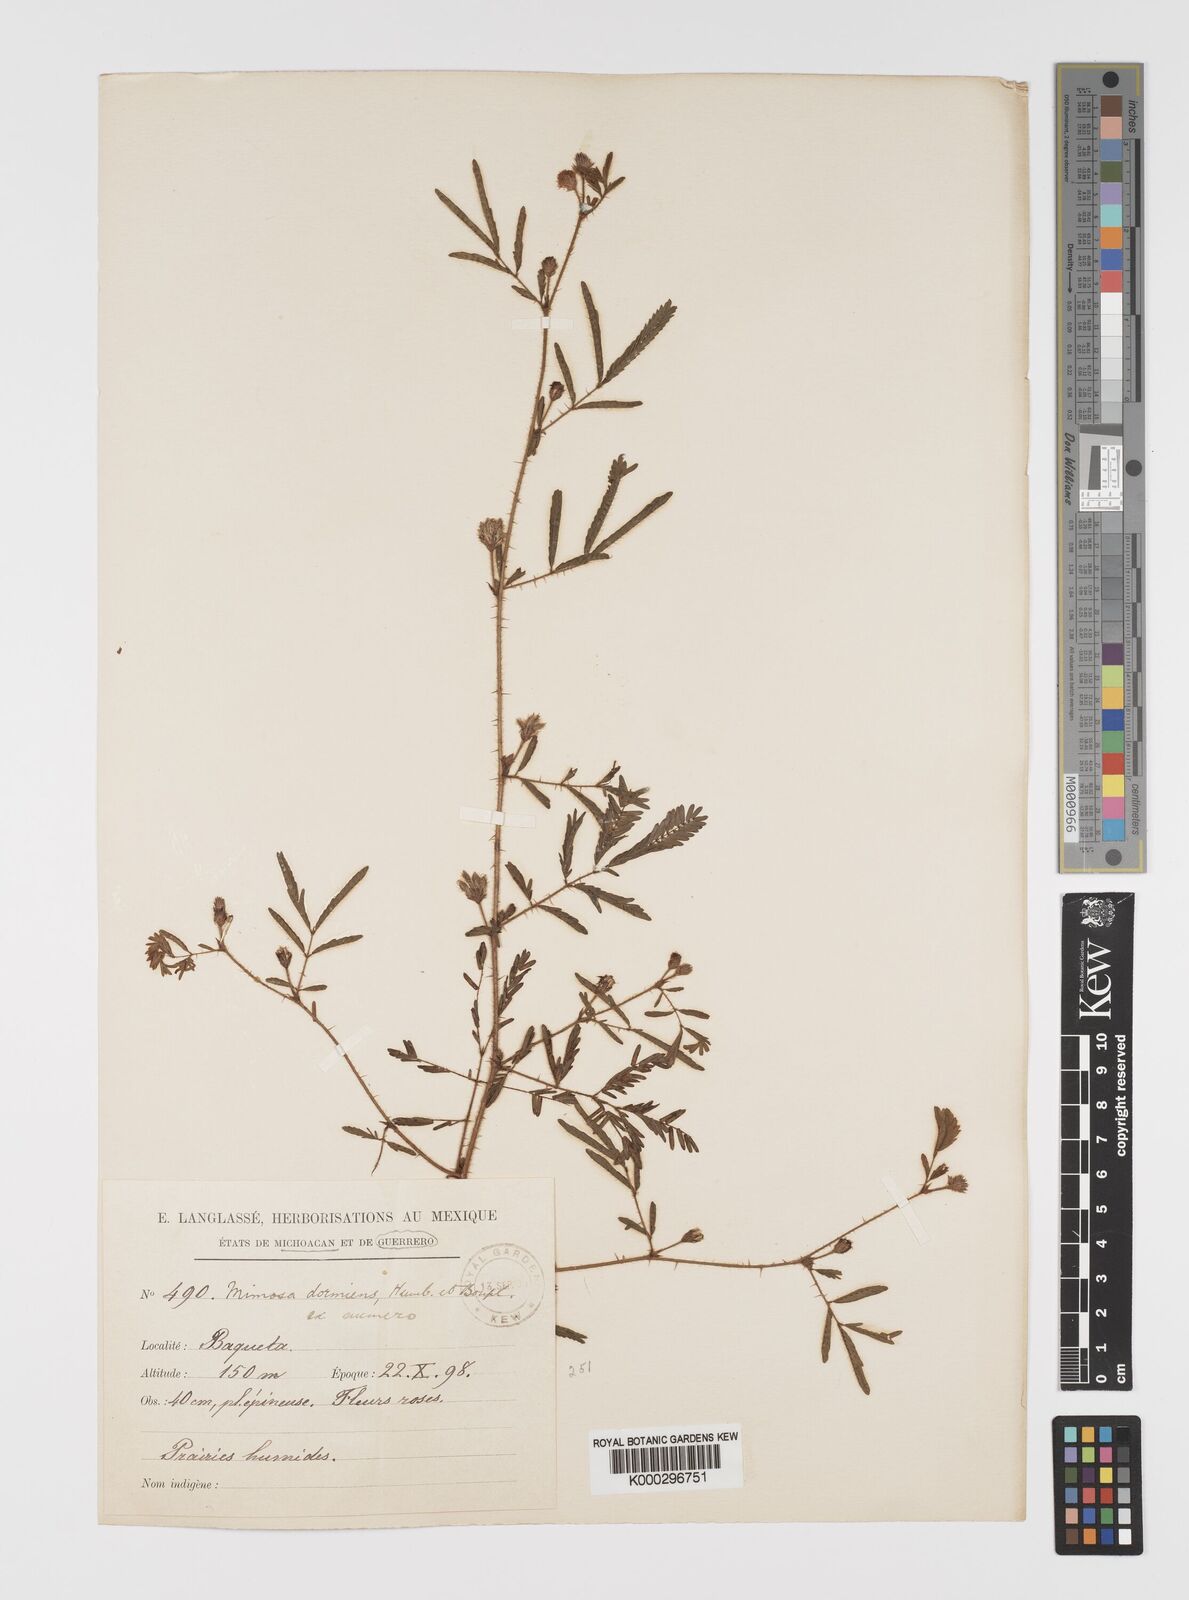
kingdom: Plantae
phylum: Tracheophyta
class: Magnoliopsida
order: Fabales
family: Fabaceae
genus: Mimosa
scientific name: Mimosa
